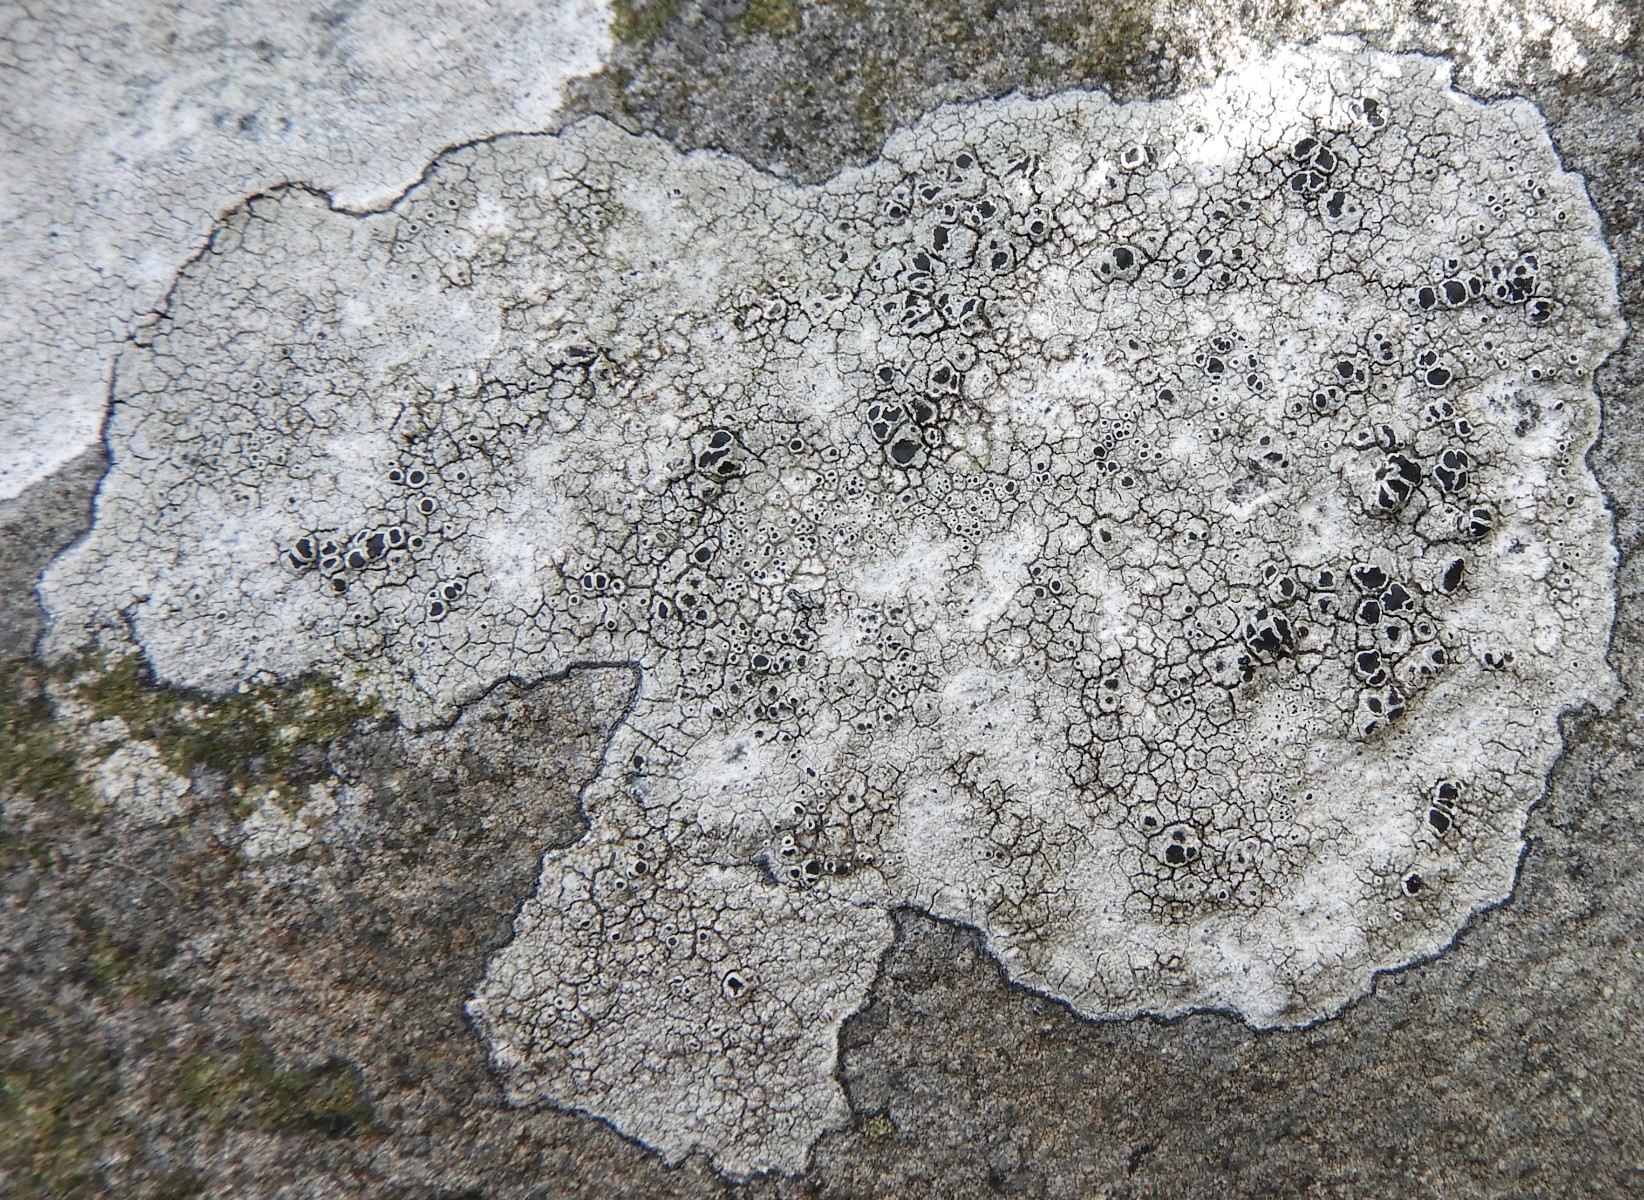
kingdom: Fungi
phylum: Ascomycota
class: Lecanoromycetes
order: Lecanorales
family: Tephromelataceae
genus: Tephromela
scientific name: Tephromela atra
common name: sortfrugtet kantskivelav
